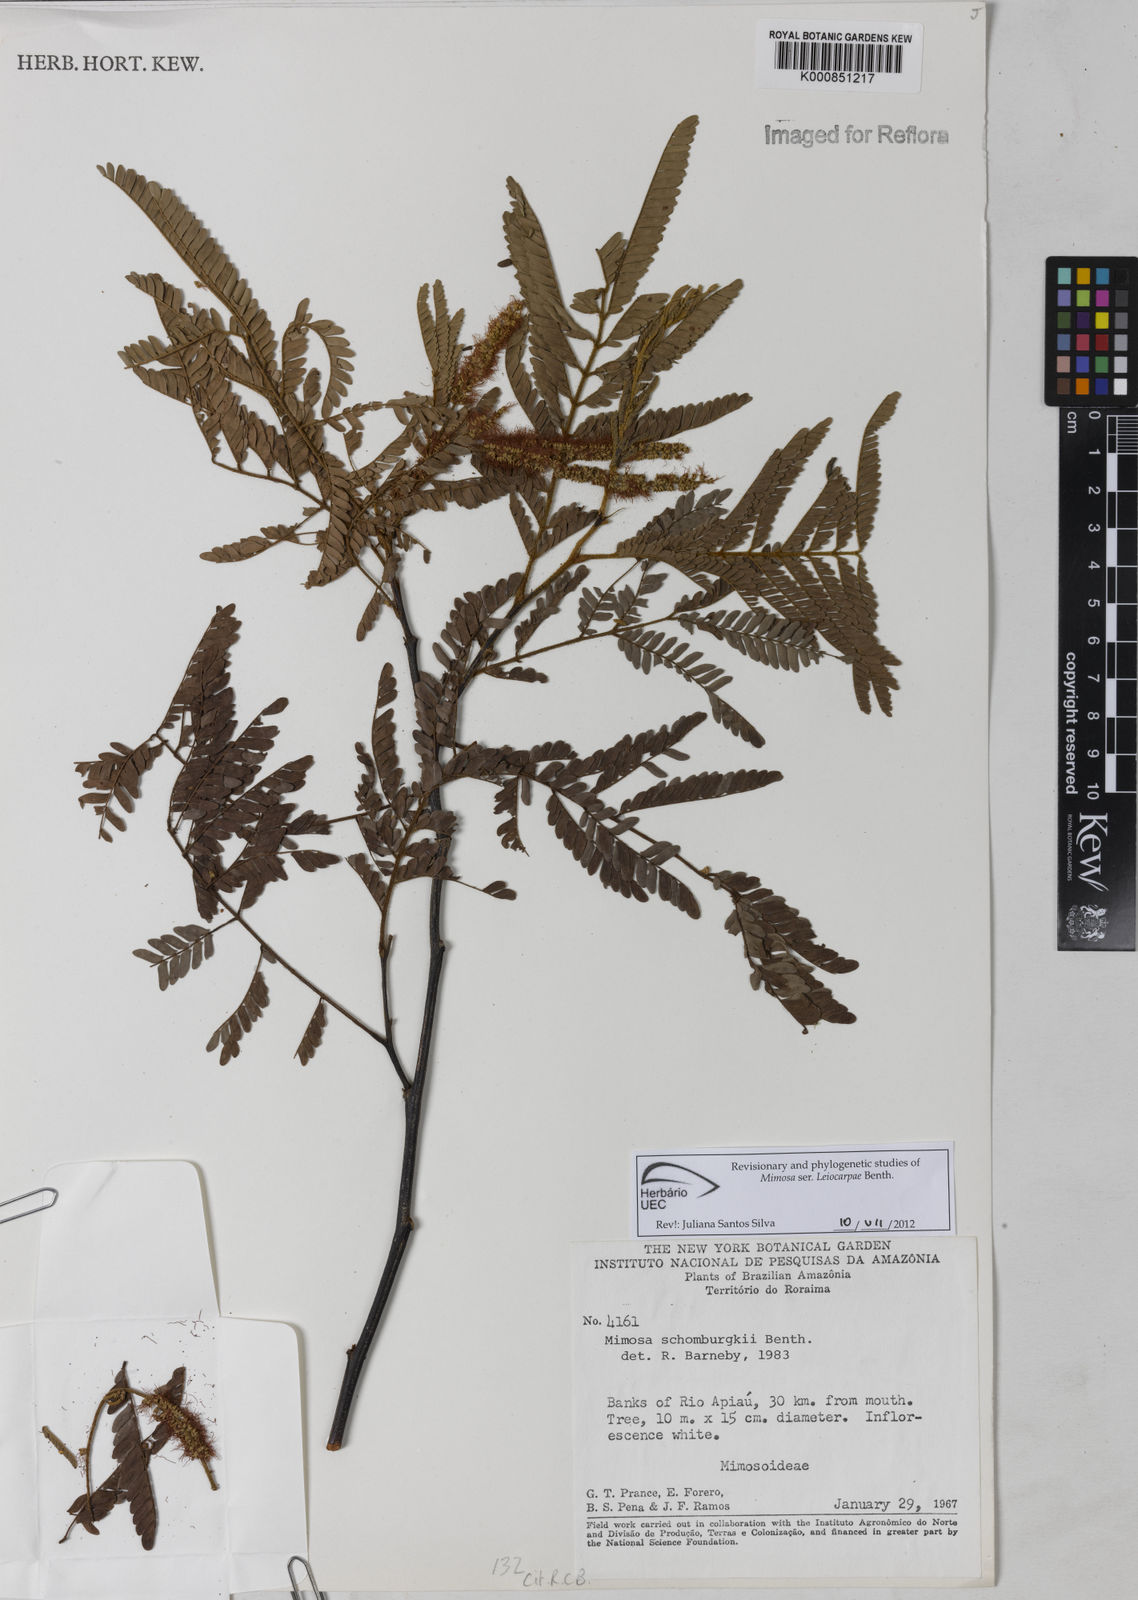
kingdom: Plantae
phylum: Tracheophyta
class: Magnoliopsida
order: Fabales
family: Fabaceae
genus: Mimosa
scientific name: Mimosa schomburgkii
